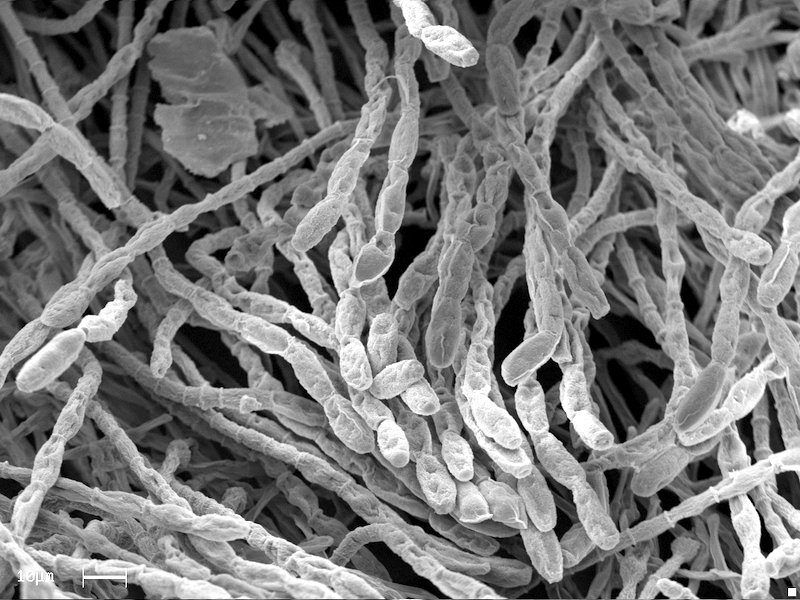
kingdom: Fungi
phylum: Ascomycota
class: Leotiomycetes
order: Helotiales
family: Erysiphaceae
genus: Blumeria
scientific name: Blumeria graminis
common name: Grass and cereal powdery mildew
